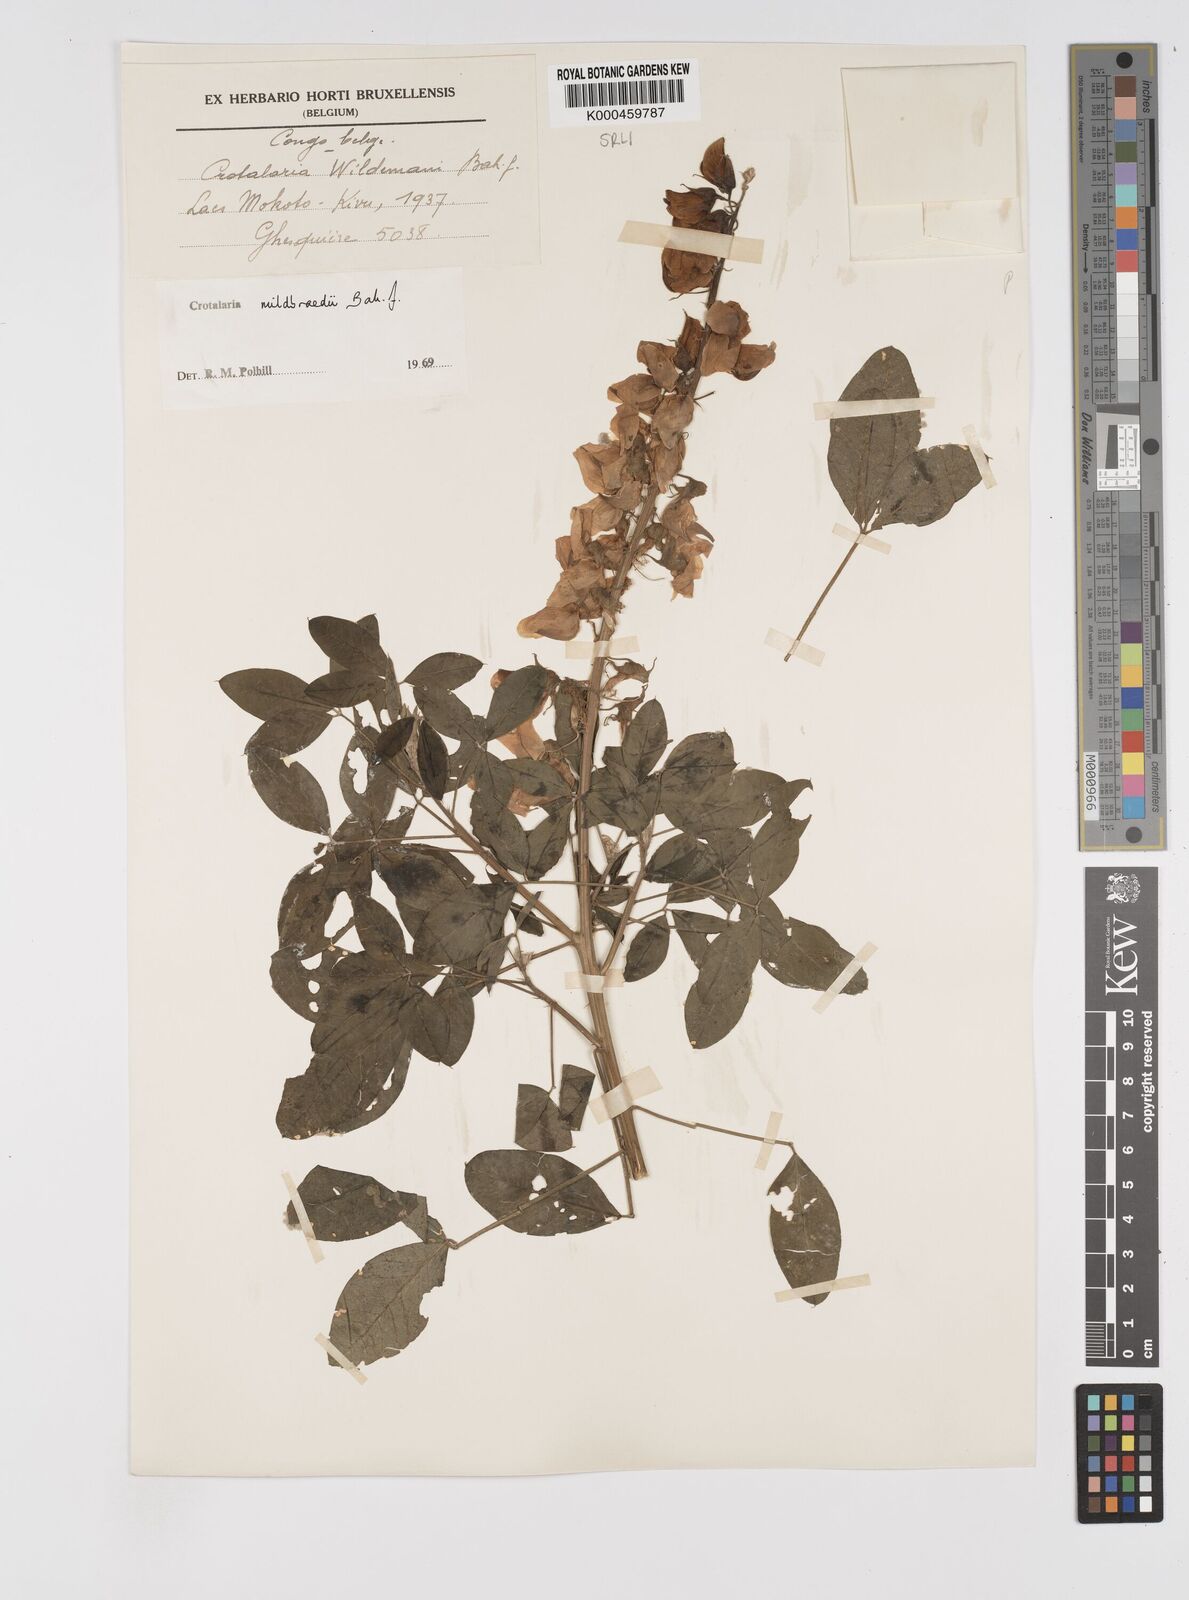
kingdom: Plantae
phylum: Tracheophyta
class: Magnoliopsida
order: Fabales
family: Fabaceae
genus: Crotalaria
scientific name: Crotalaria mildbraedii
